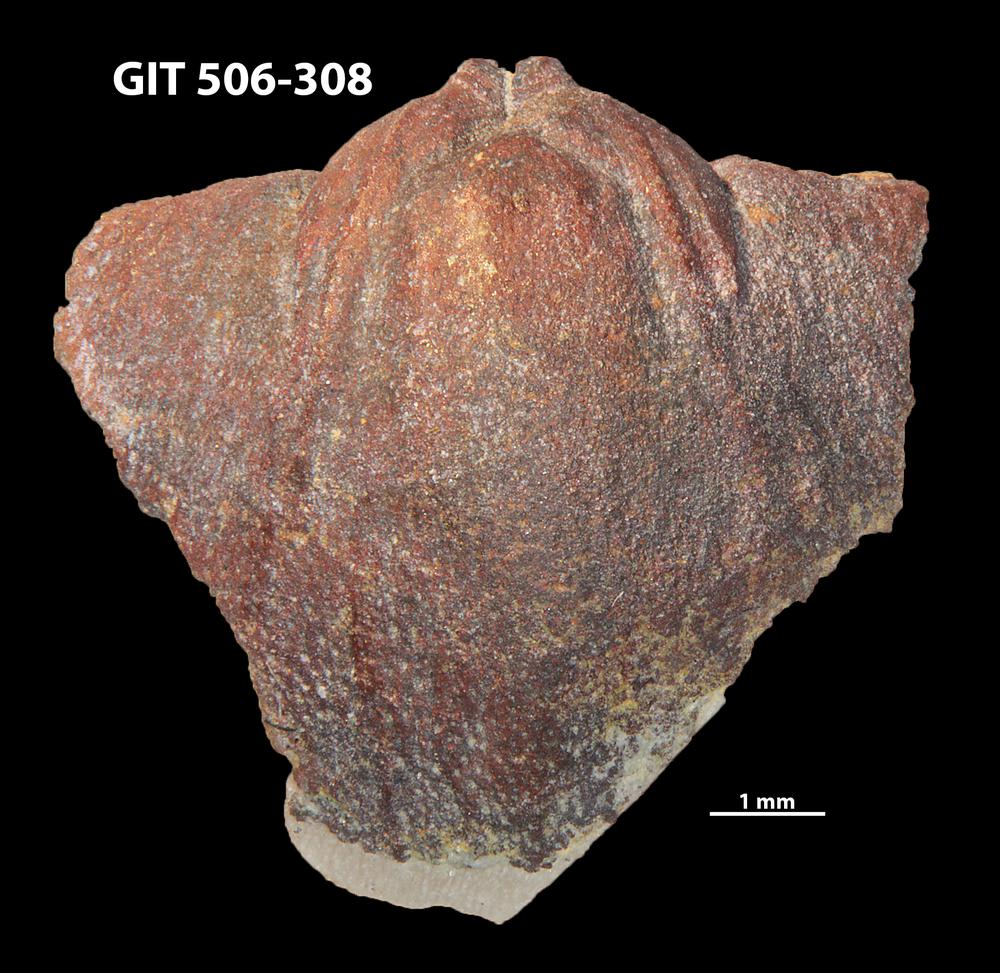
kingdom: Animalia
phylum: Brachiopoda
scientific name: Brachiopoda
